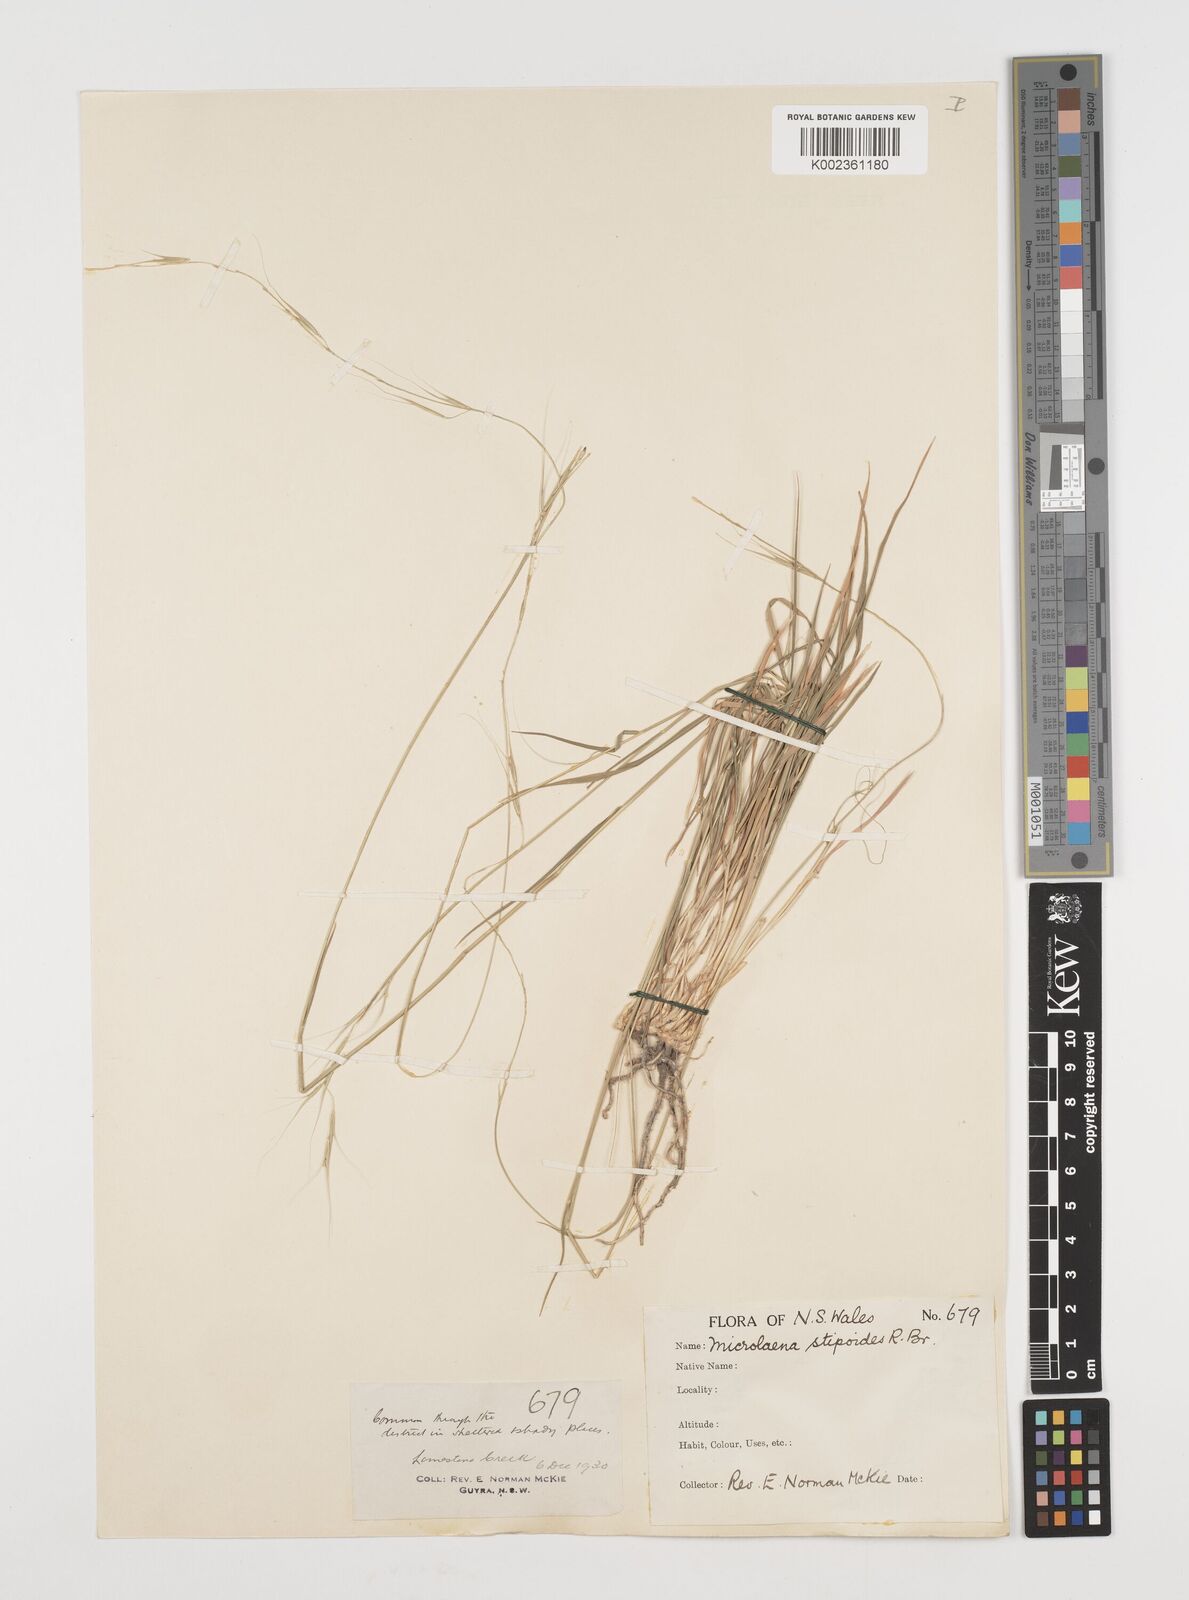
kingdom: Plantae
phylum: Tracheophyta
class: Liliopsida
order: Poales
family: Poaceae
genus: Microlaena
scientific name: Microlaena stipoides
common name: Meadow ricegrass
